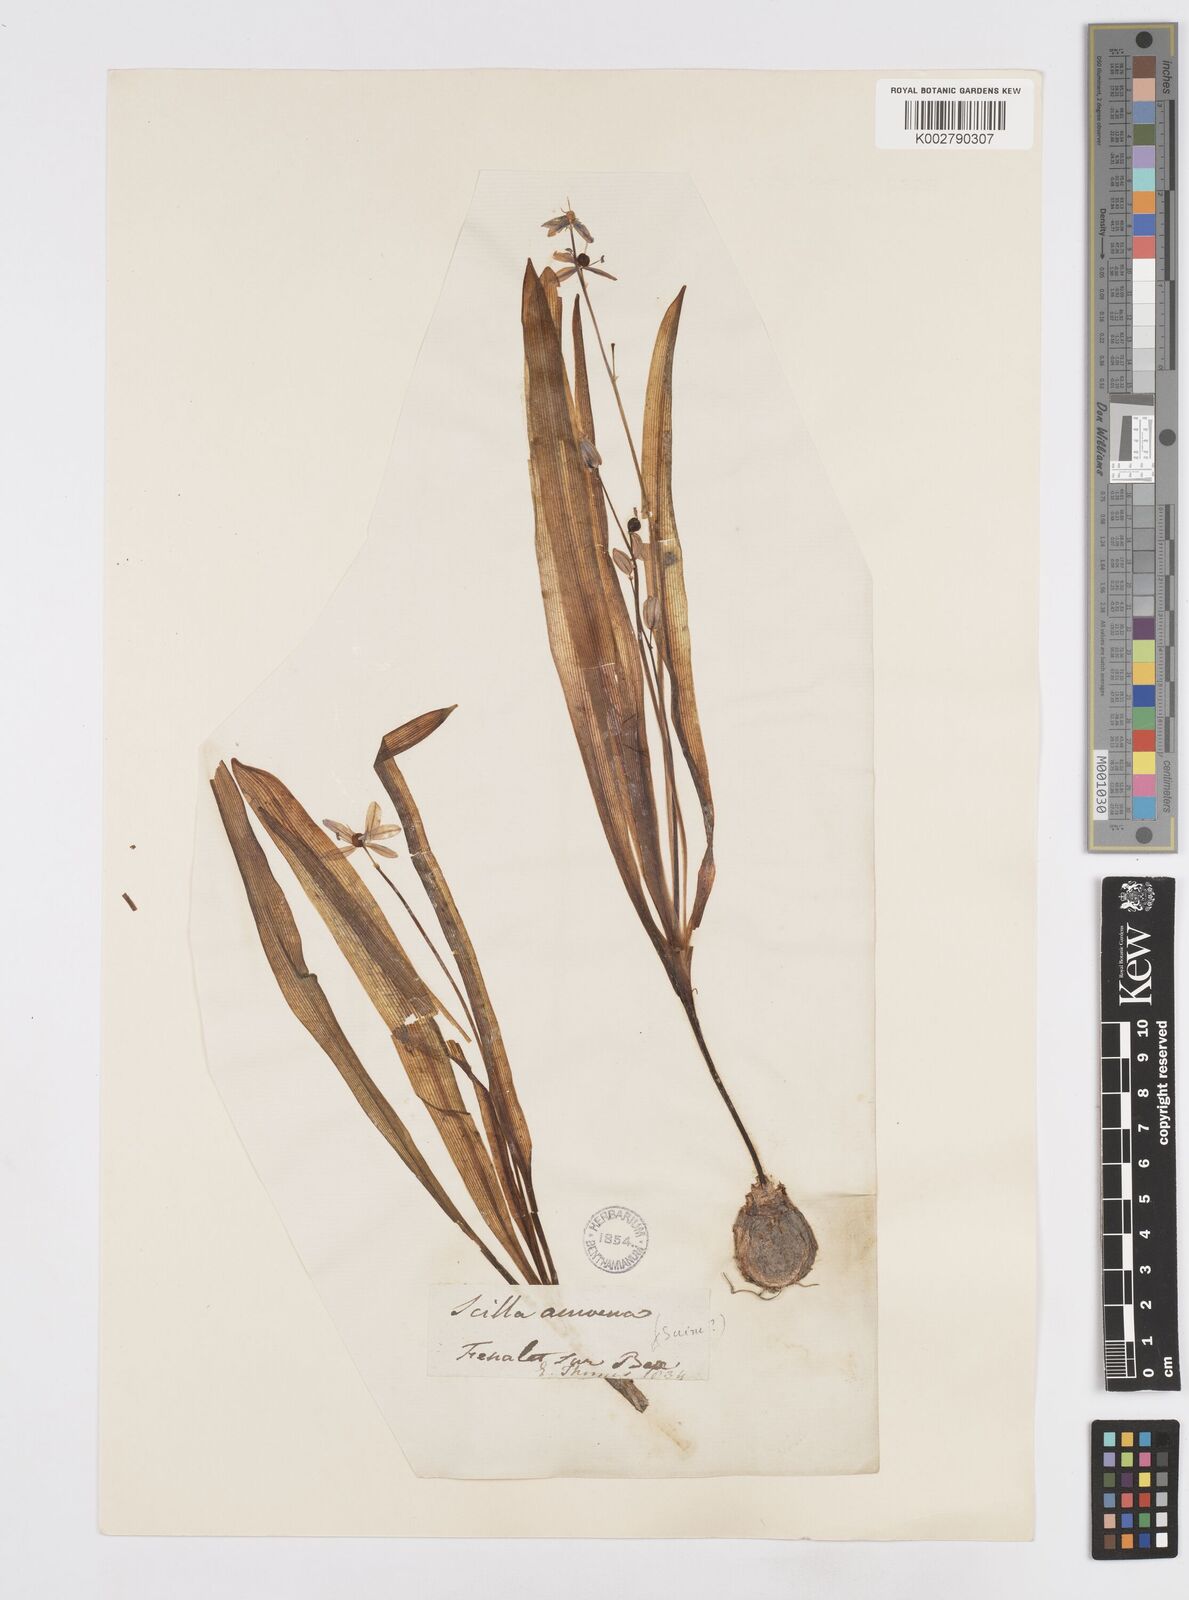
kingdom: Plantae
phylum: Tracheophyta
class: Liliopsida
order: Asparagales
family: Asparagaceae
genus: Scilla
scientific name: Scilla amoena
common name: Star-hyacinth
